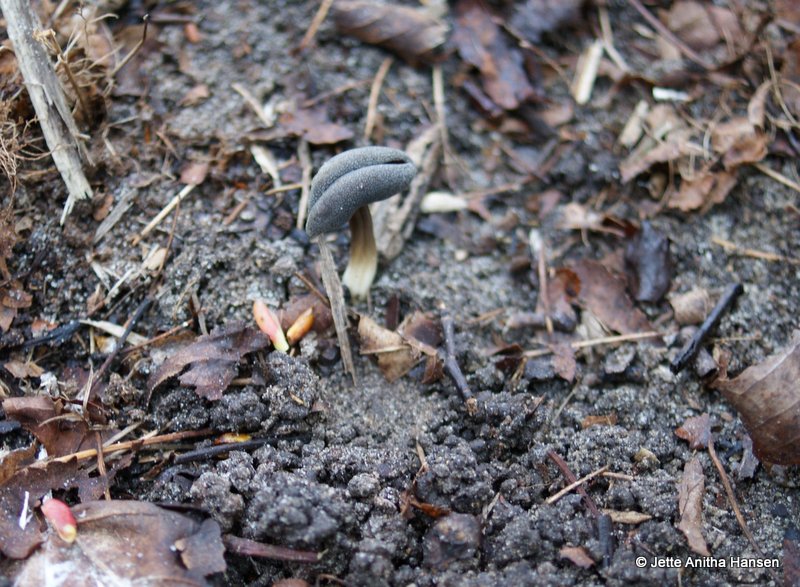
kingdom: Fungi
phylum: Ascomycota
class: Pezizomycetes
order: Pezizales
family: Helvellaceae
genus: Helvella
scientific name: Helvella solitaria
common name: Quélets foldhat
